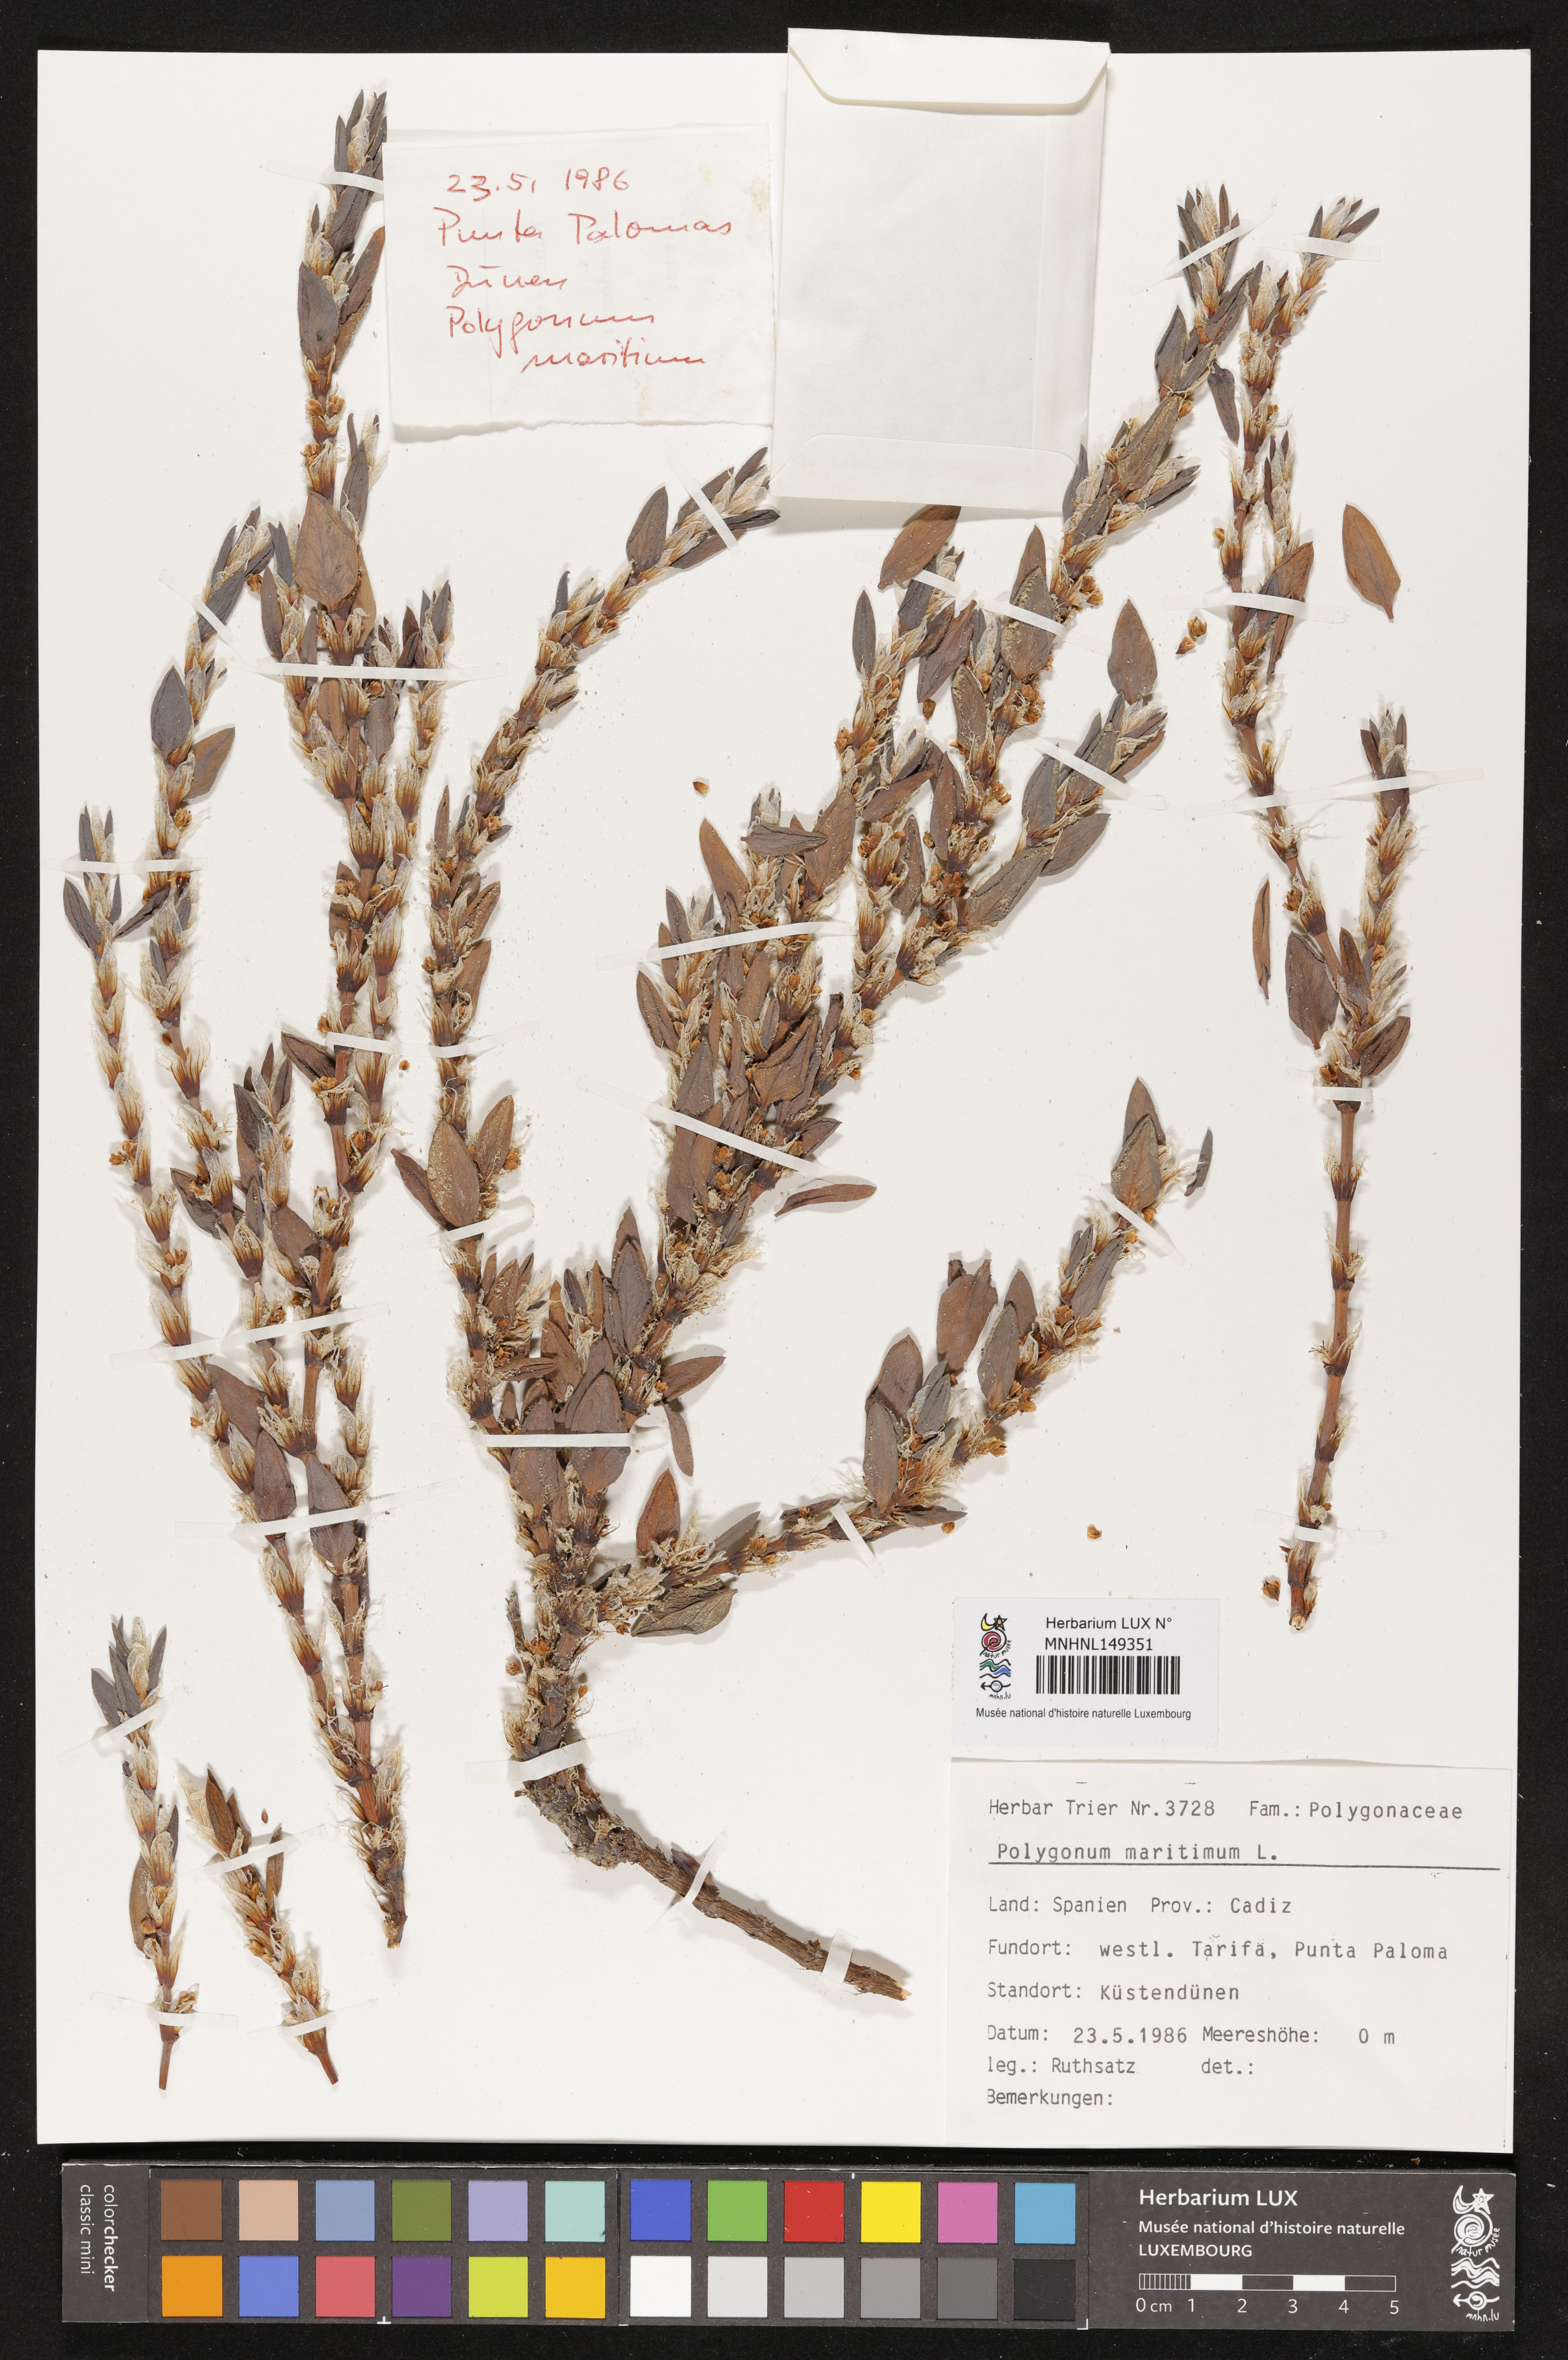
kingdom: Plantae
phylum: Tracheophyta
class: Magnoliopsida
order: Caryophyllales
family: Polygonaceae
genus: Polygonum
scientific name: Polygonum maritimum
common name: Sea knotgrass
